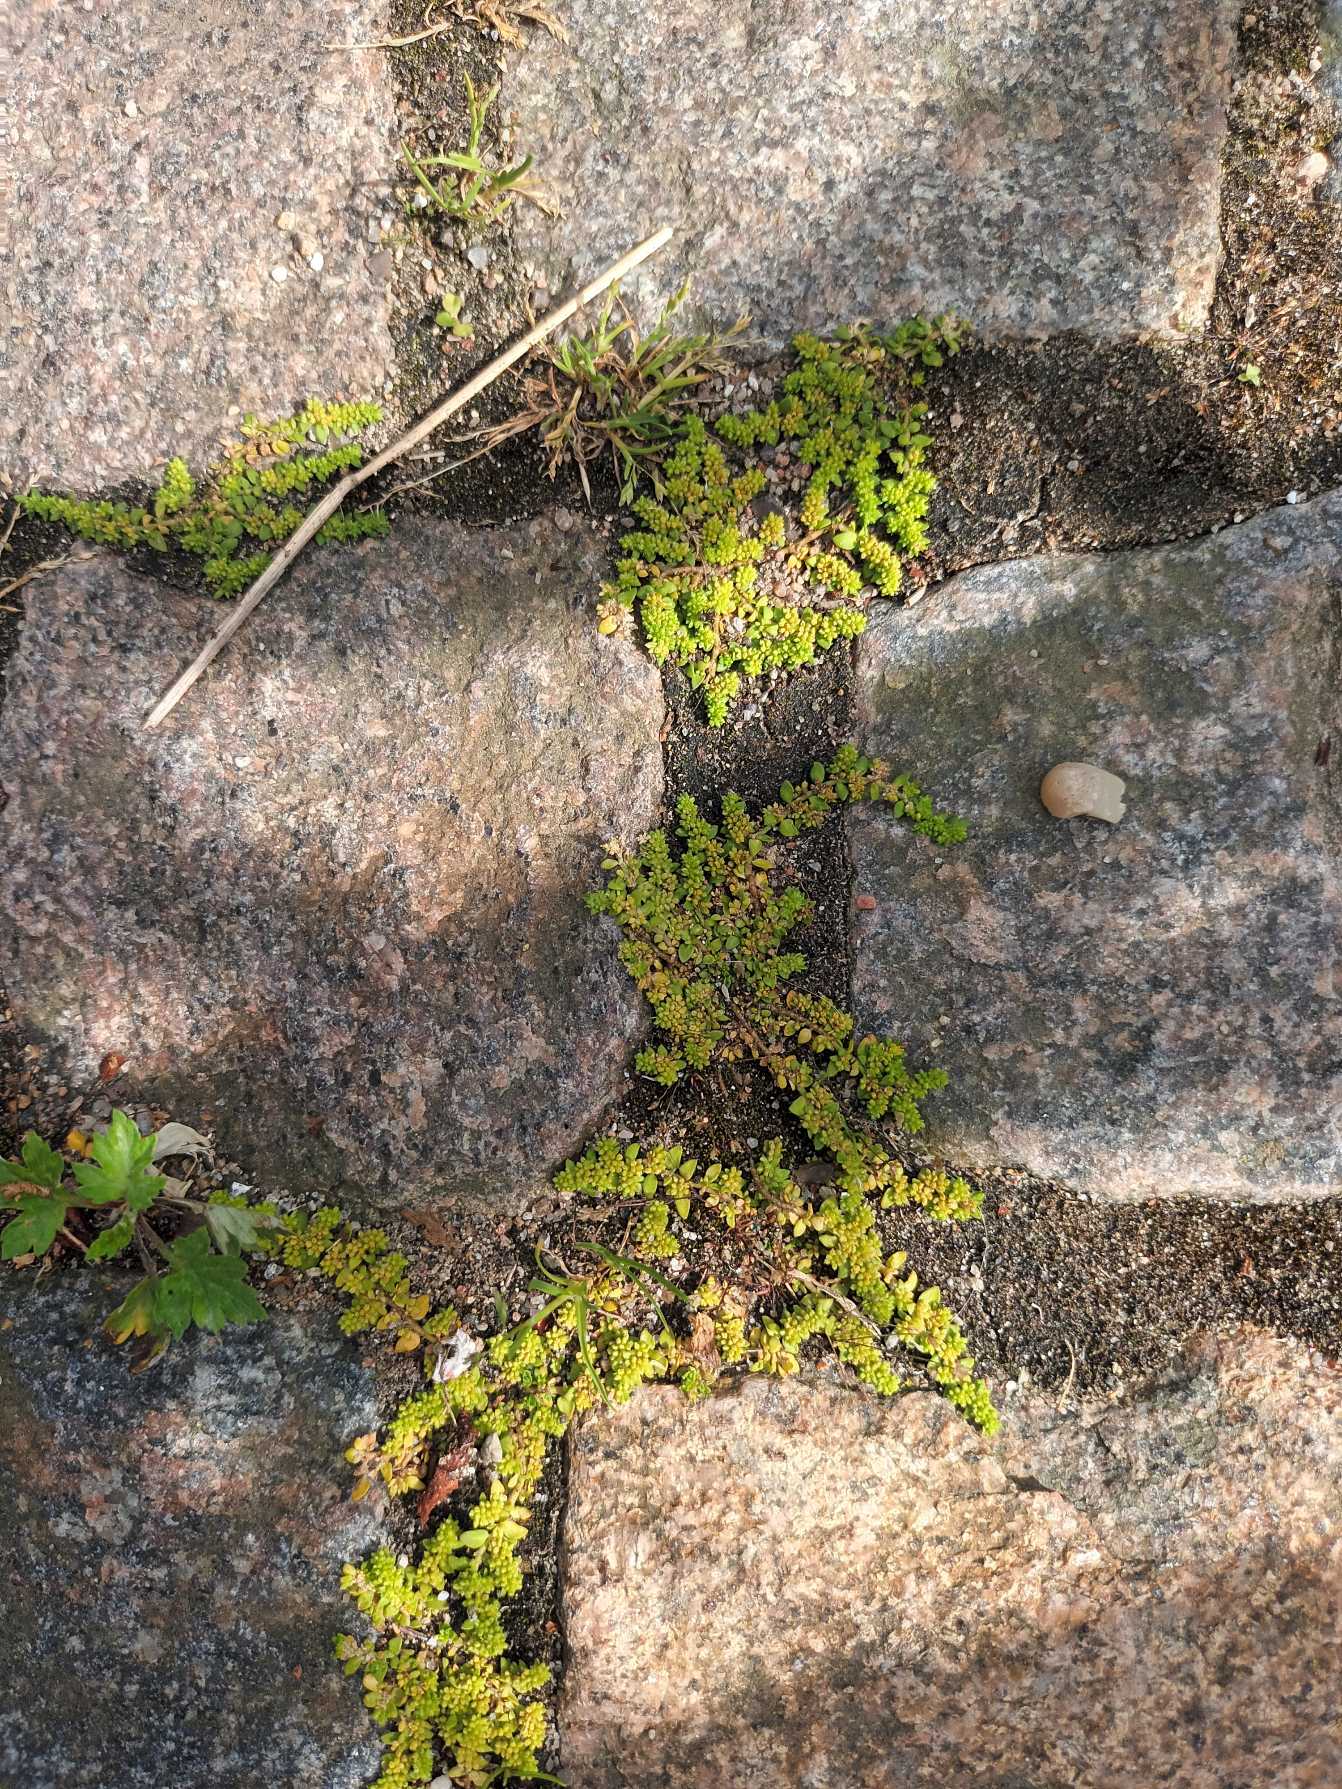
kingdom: Plantae
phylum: Tracheophyta
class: Magnoliopsida
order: Caryophyllales
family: Caryophyllaceae
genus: Herniaria
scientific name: Herniaria glabra
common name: Brudurt
